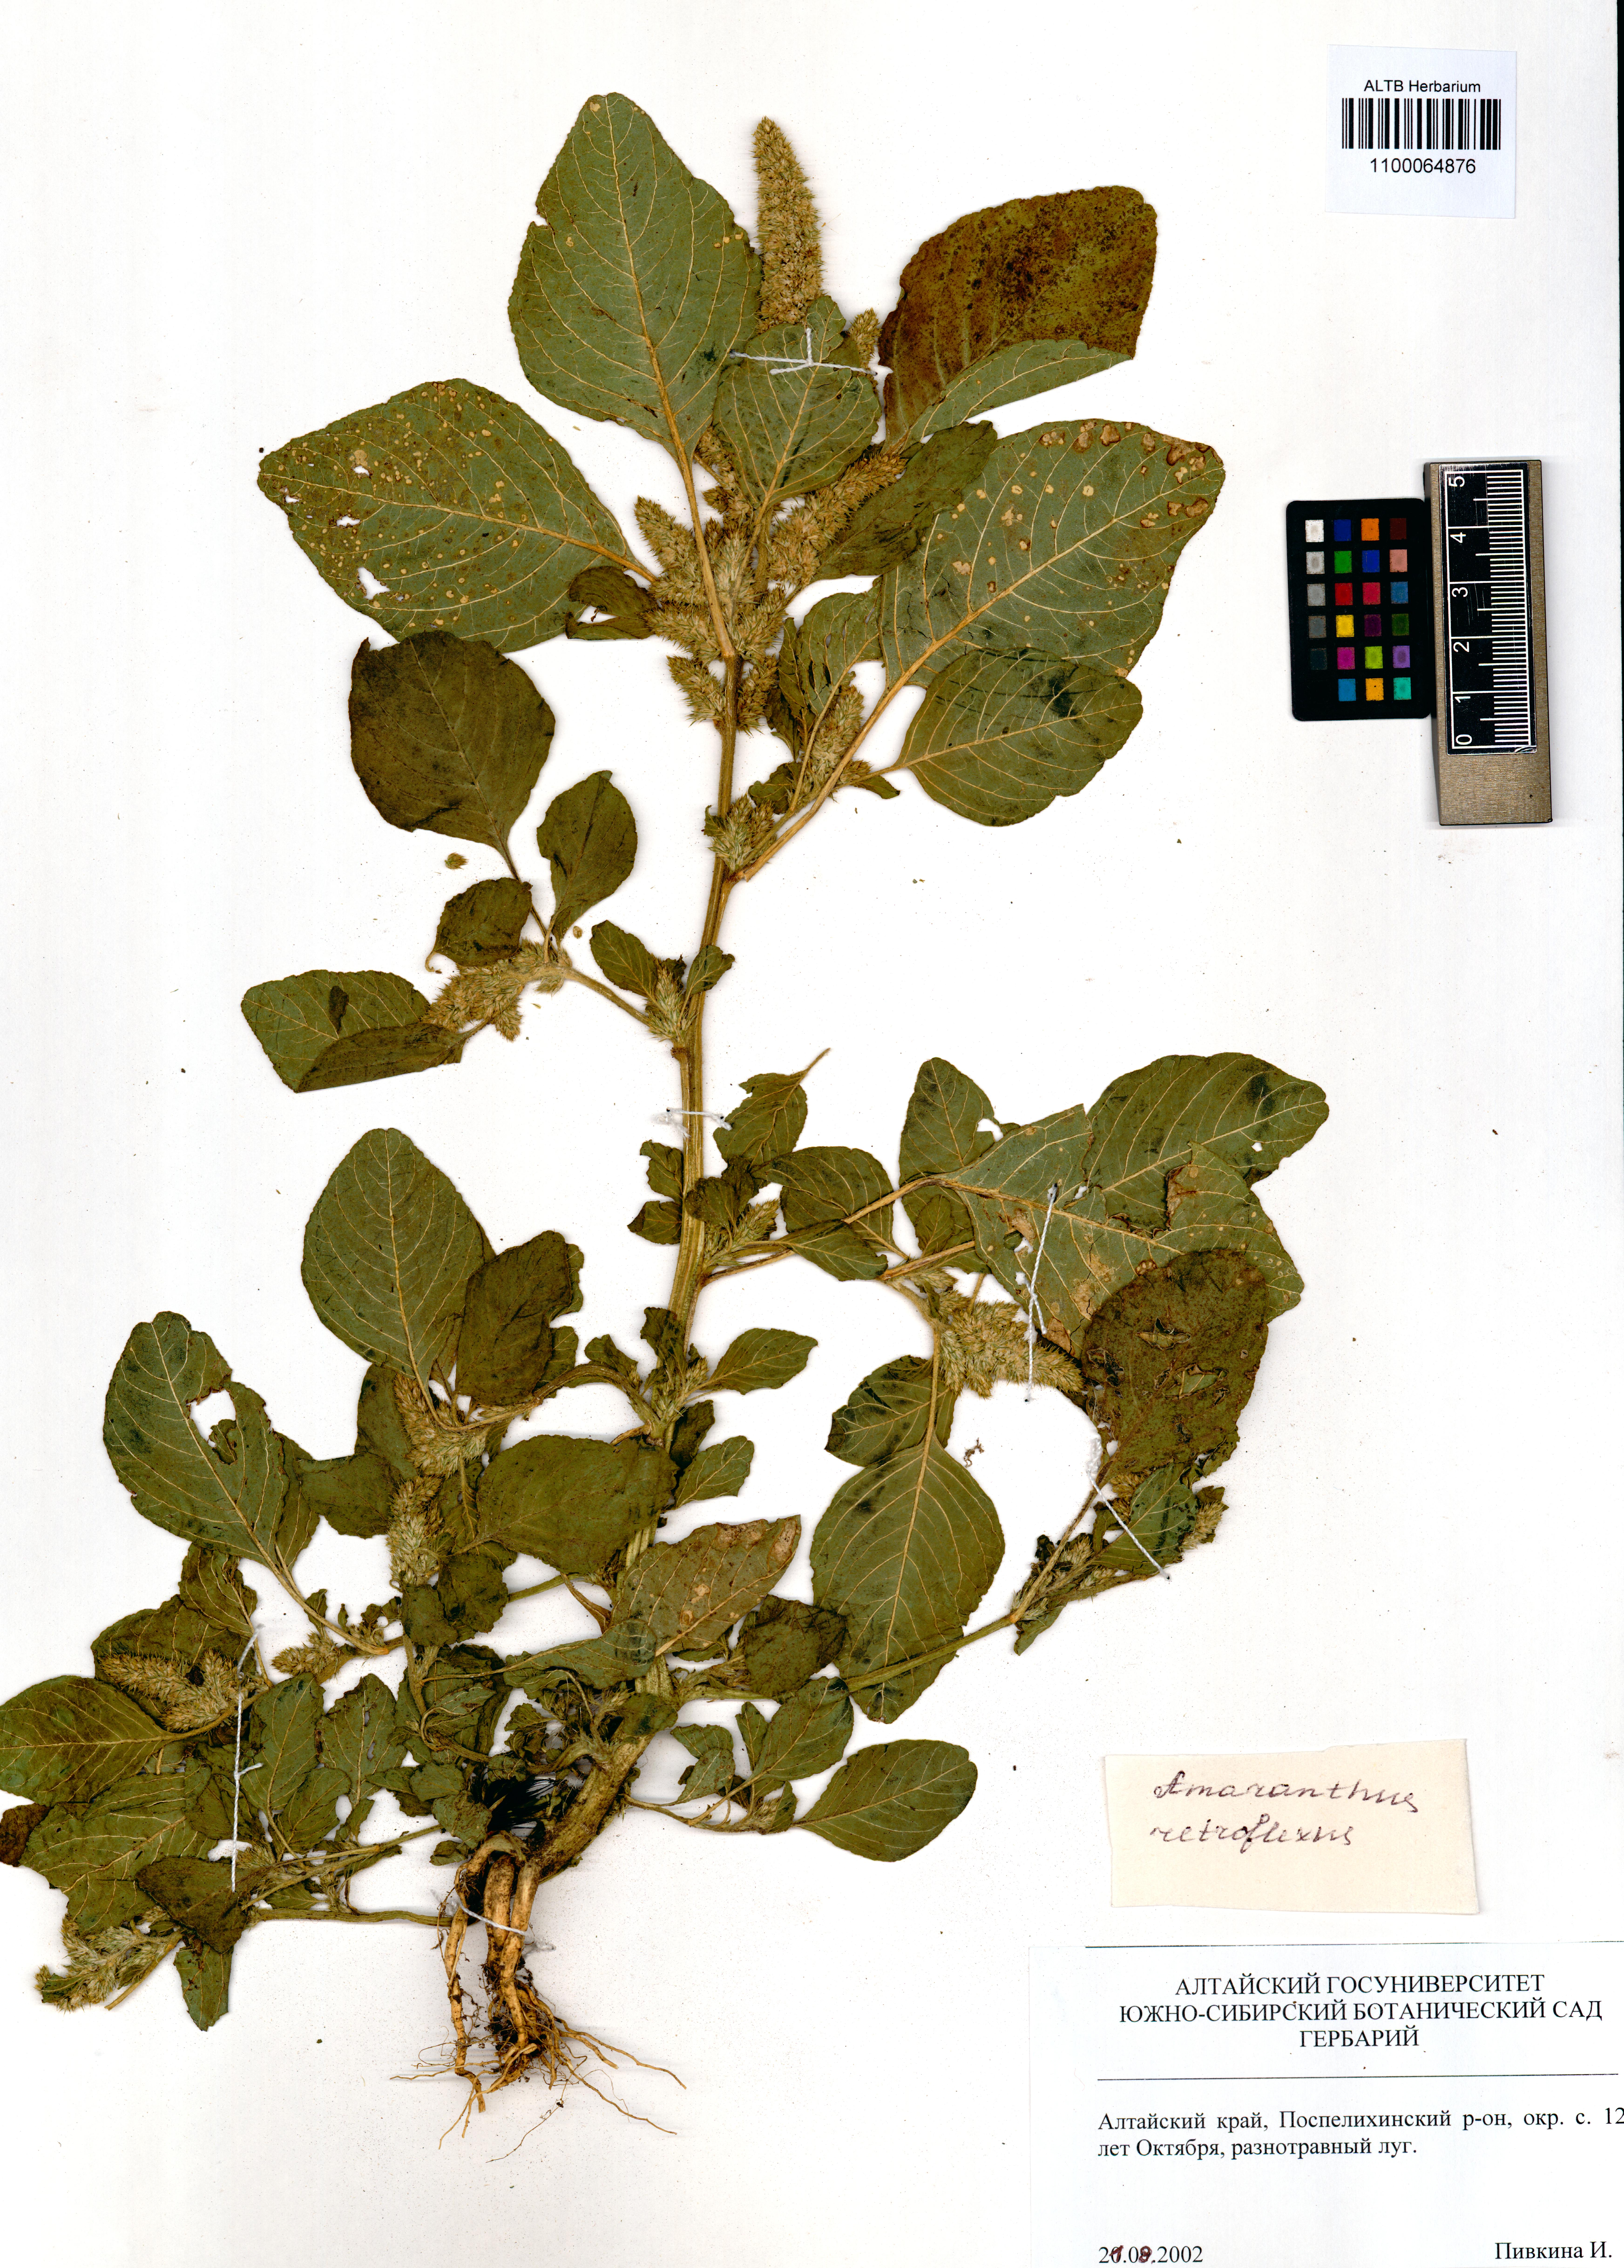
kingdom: Plantae
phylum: Tracheophyta
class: Magnoliopsida
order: Caryophyllales
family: Amaranthaceae
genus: Amaranthus
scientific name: Amaranthus retroflexus
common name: Redroot amaranth
